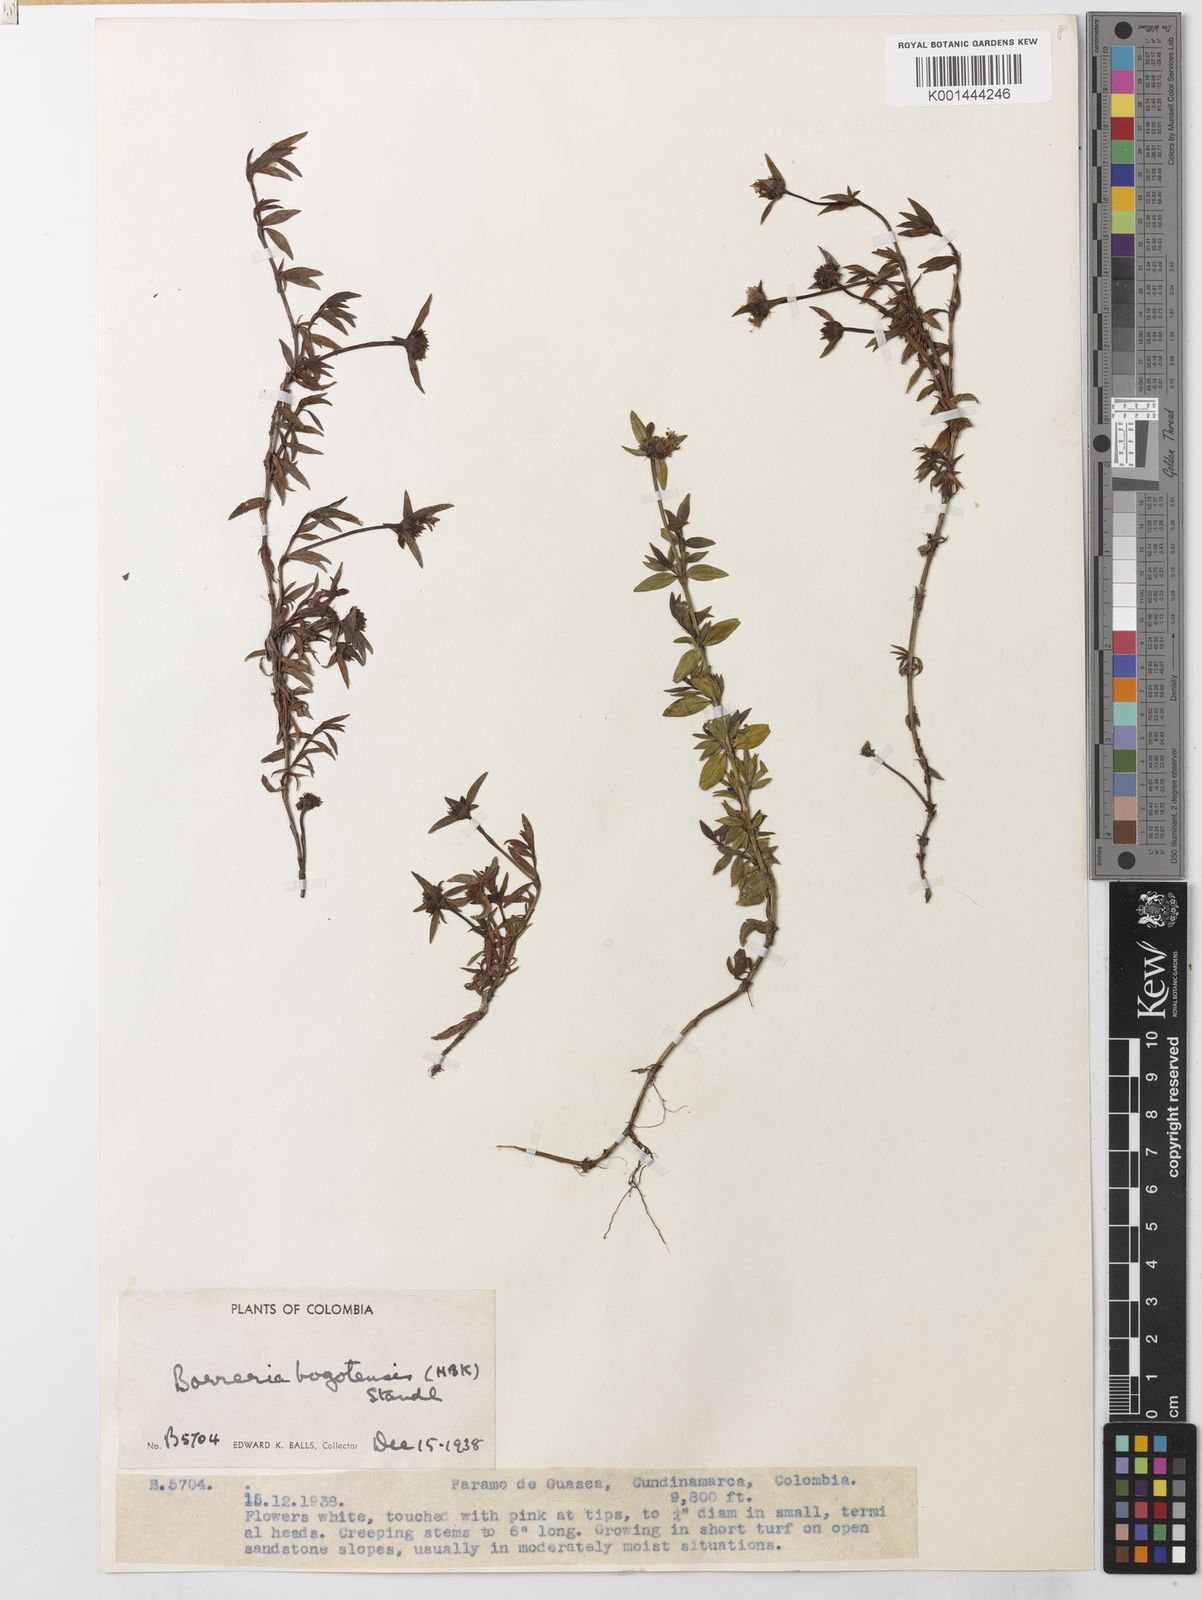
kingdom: Plantae
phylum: Tracheophyta
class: Magnoliopsida
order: Gentianales
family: Rubiaceae
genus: Galianthe
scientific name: Galianthe bogotensis
